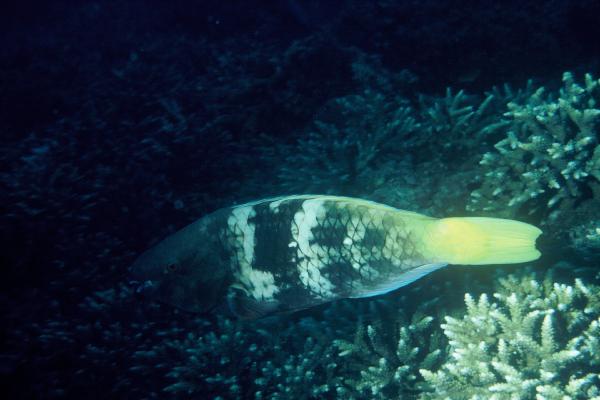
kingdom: Animalia
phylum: Chordata
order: Perciformes
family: Scaridae
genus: Scarus
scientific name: Scarus ferrugineus
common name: Rusty parrotfish
